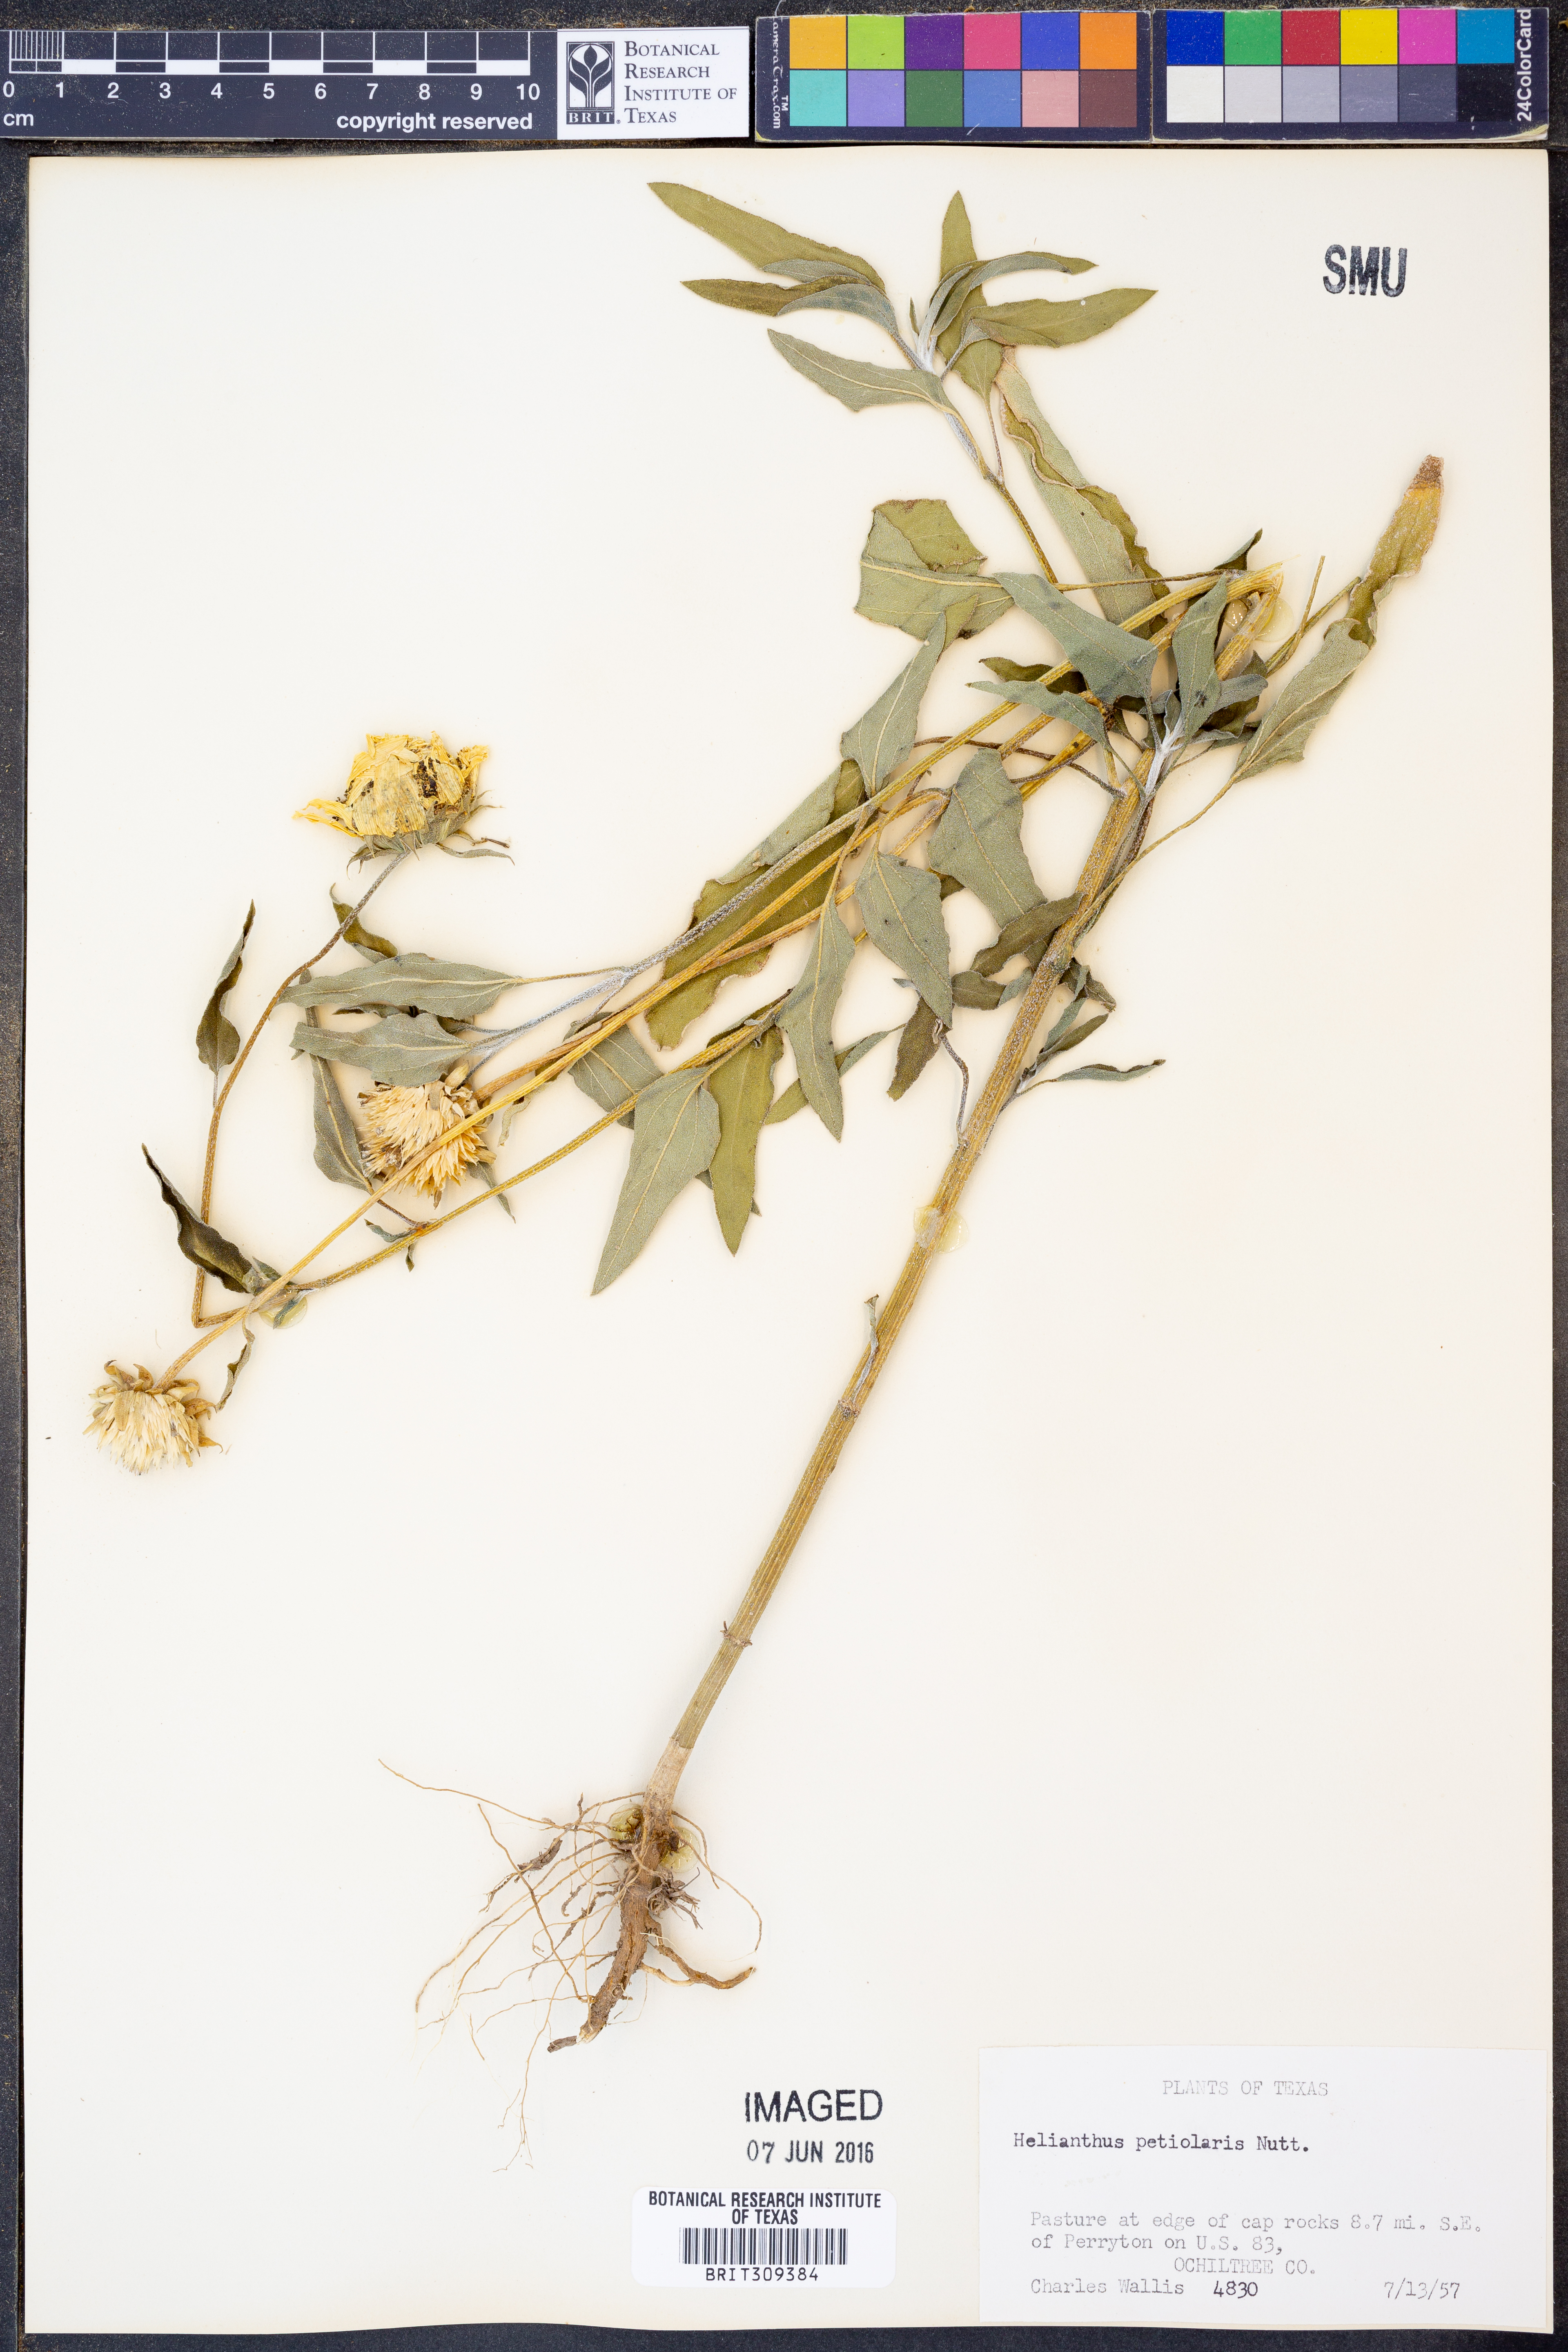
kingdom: Plantae
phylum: Tracheophyta
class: Magnoliopsida
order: Asterales
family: Asteraceae
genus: Helianthus
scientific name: Helianthus petiolaris
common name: Lesser sunflower
